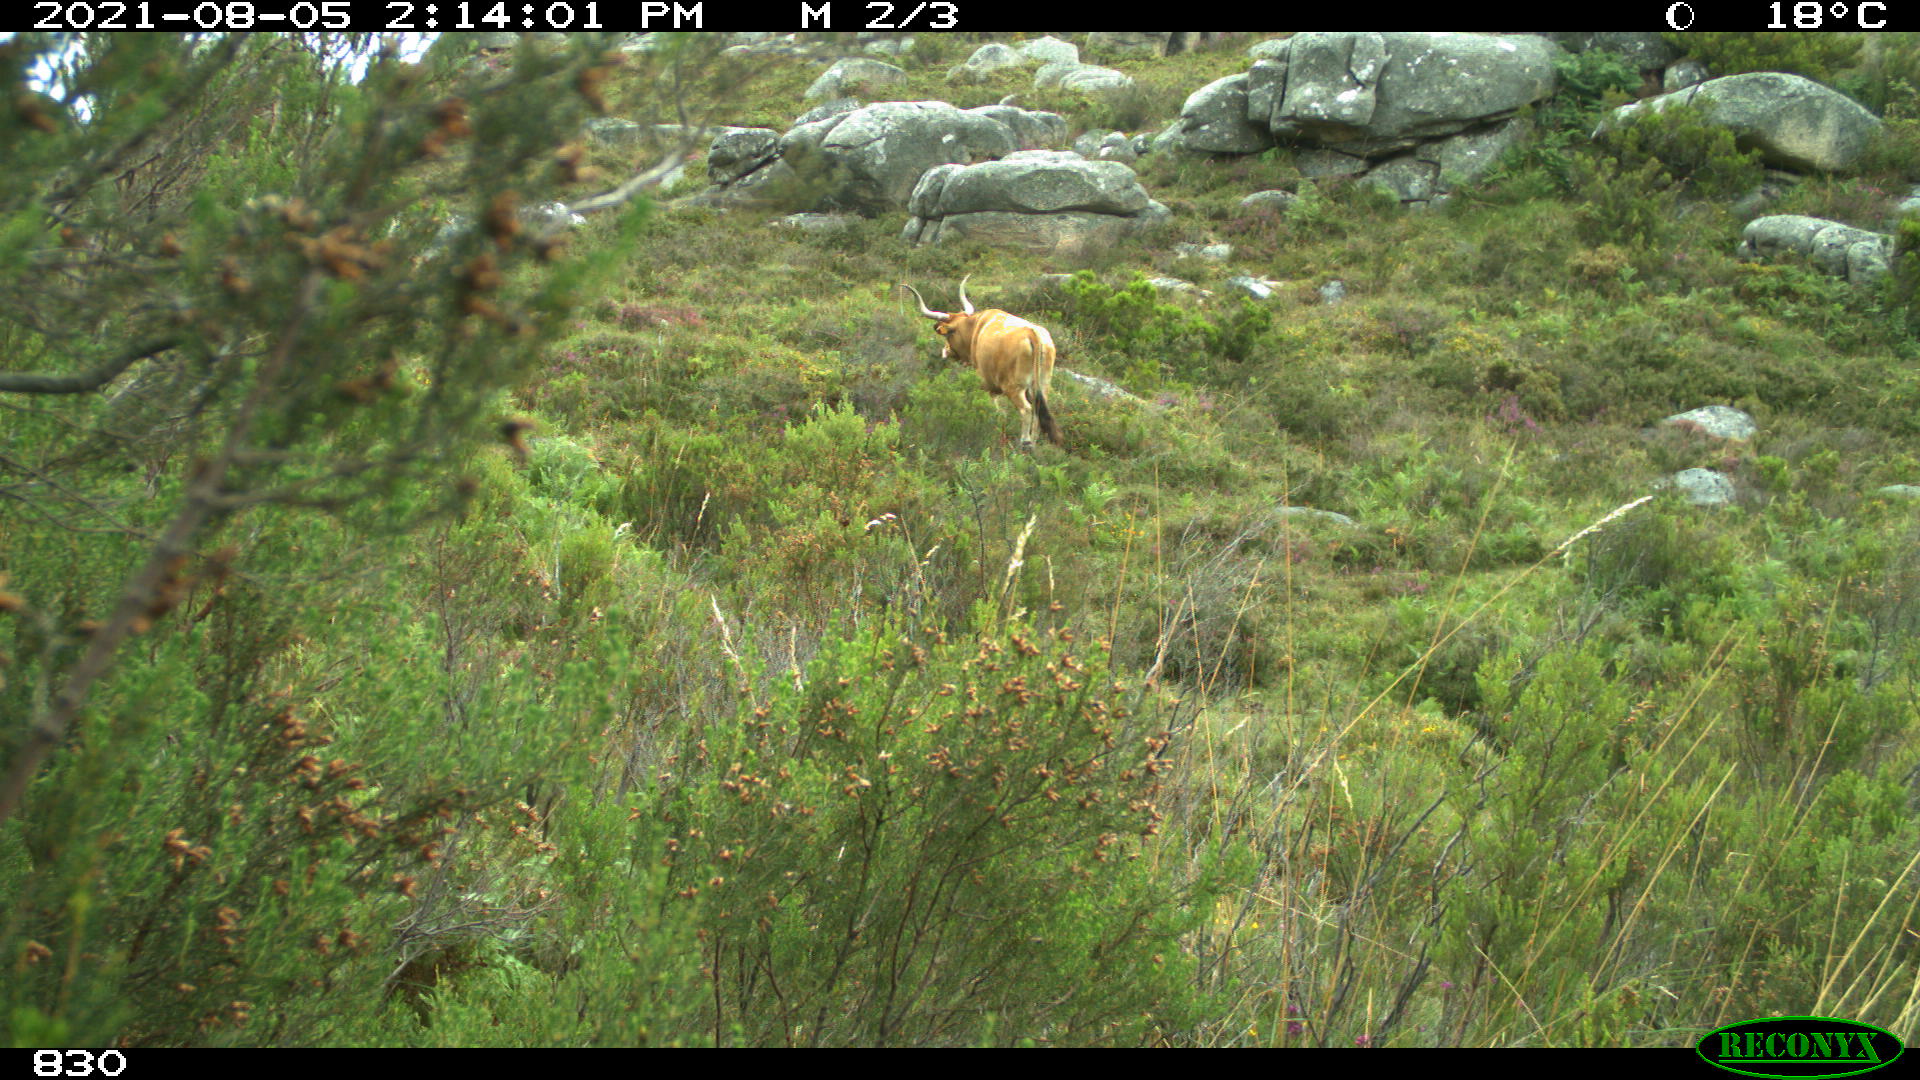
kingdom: Animalia
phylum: Chordata
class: Mammalia
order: Artiodactyla
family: Bovidae
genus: Bos
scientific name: Bos taurus
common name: Domesticated cattle
